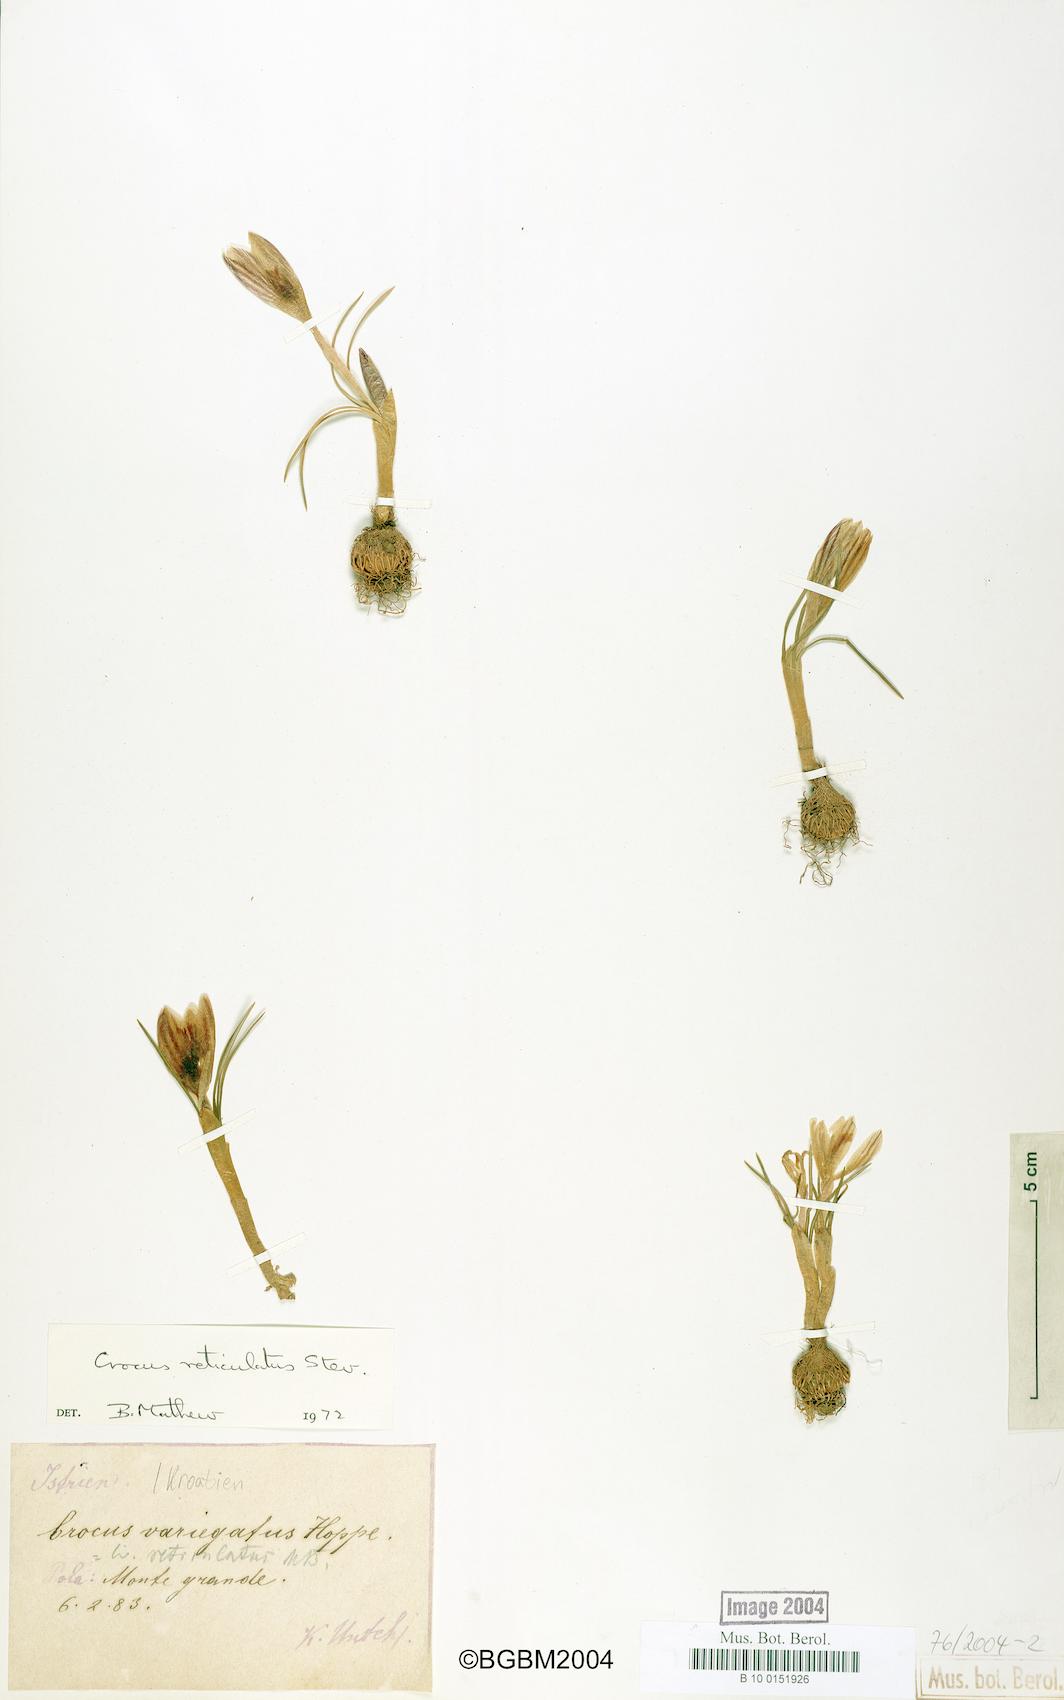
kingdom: Plantae
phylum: Tracheophyta
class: Liliopsida
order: Asparagales
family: Iridaceae
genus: Crocus
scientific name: Crocus reticulatus
